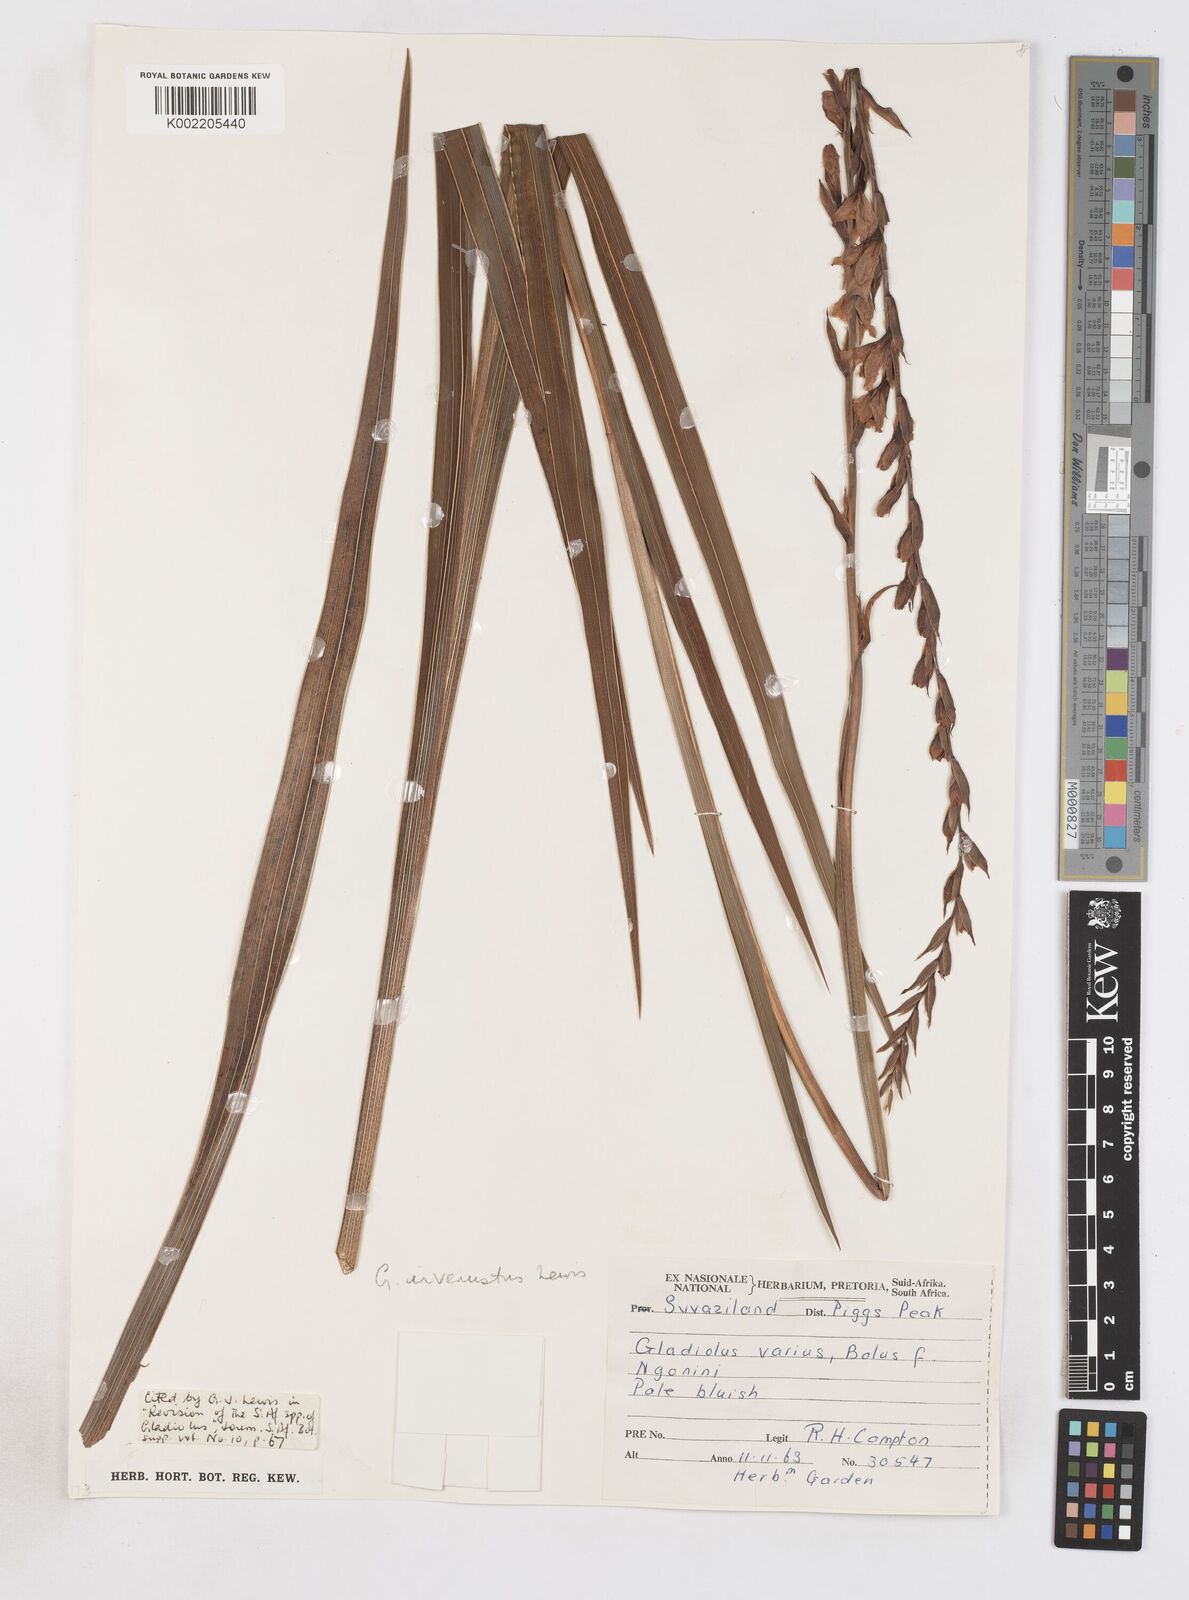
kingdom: Plantae
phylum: Tracheophyta
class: Liliopsida
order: Asparagales
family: Iridaceae
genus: Gladiolus
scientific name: Gladiolus densiflorus
